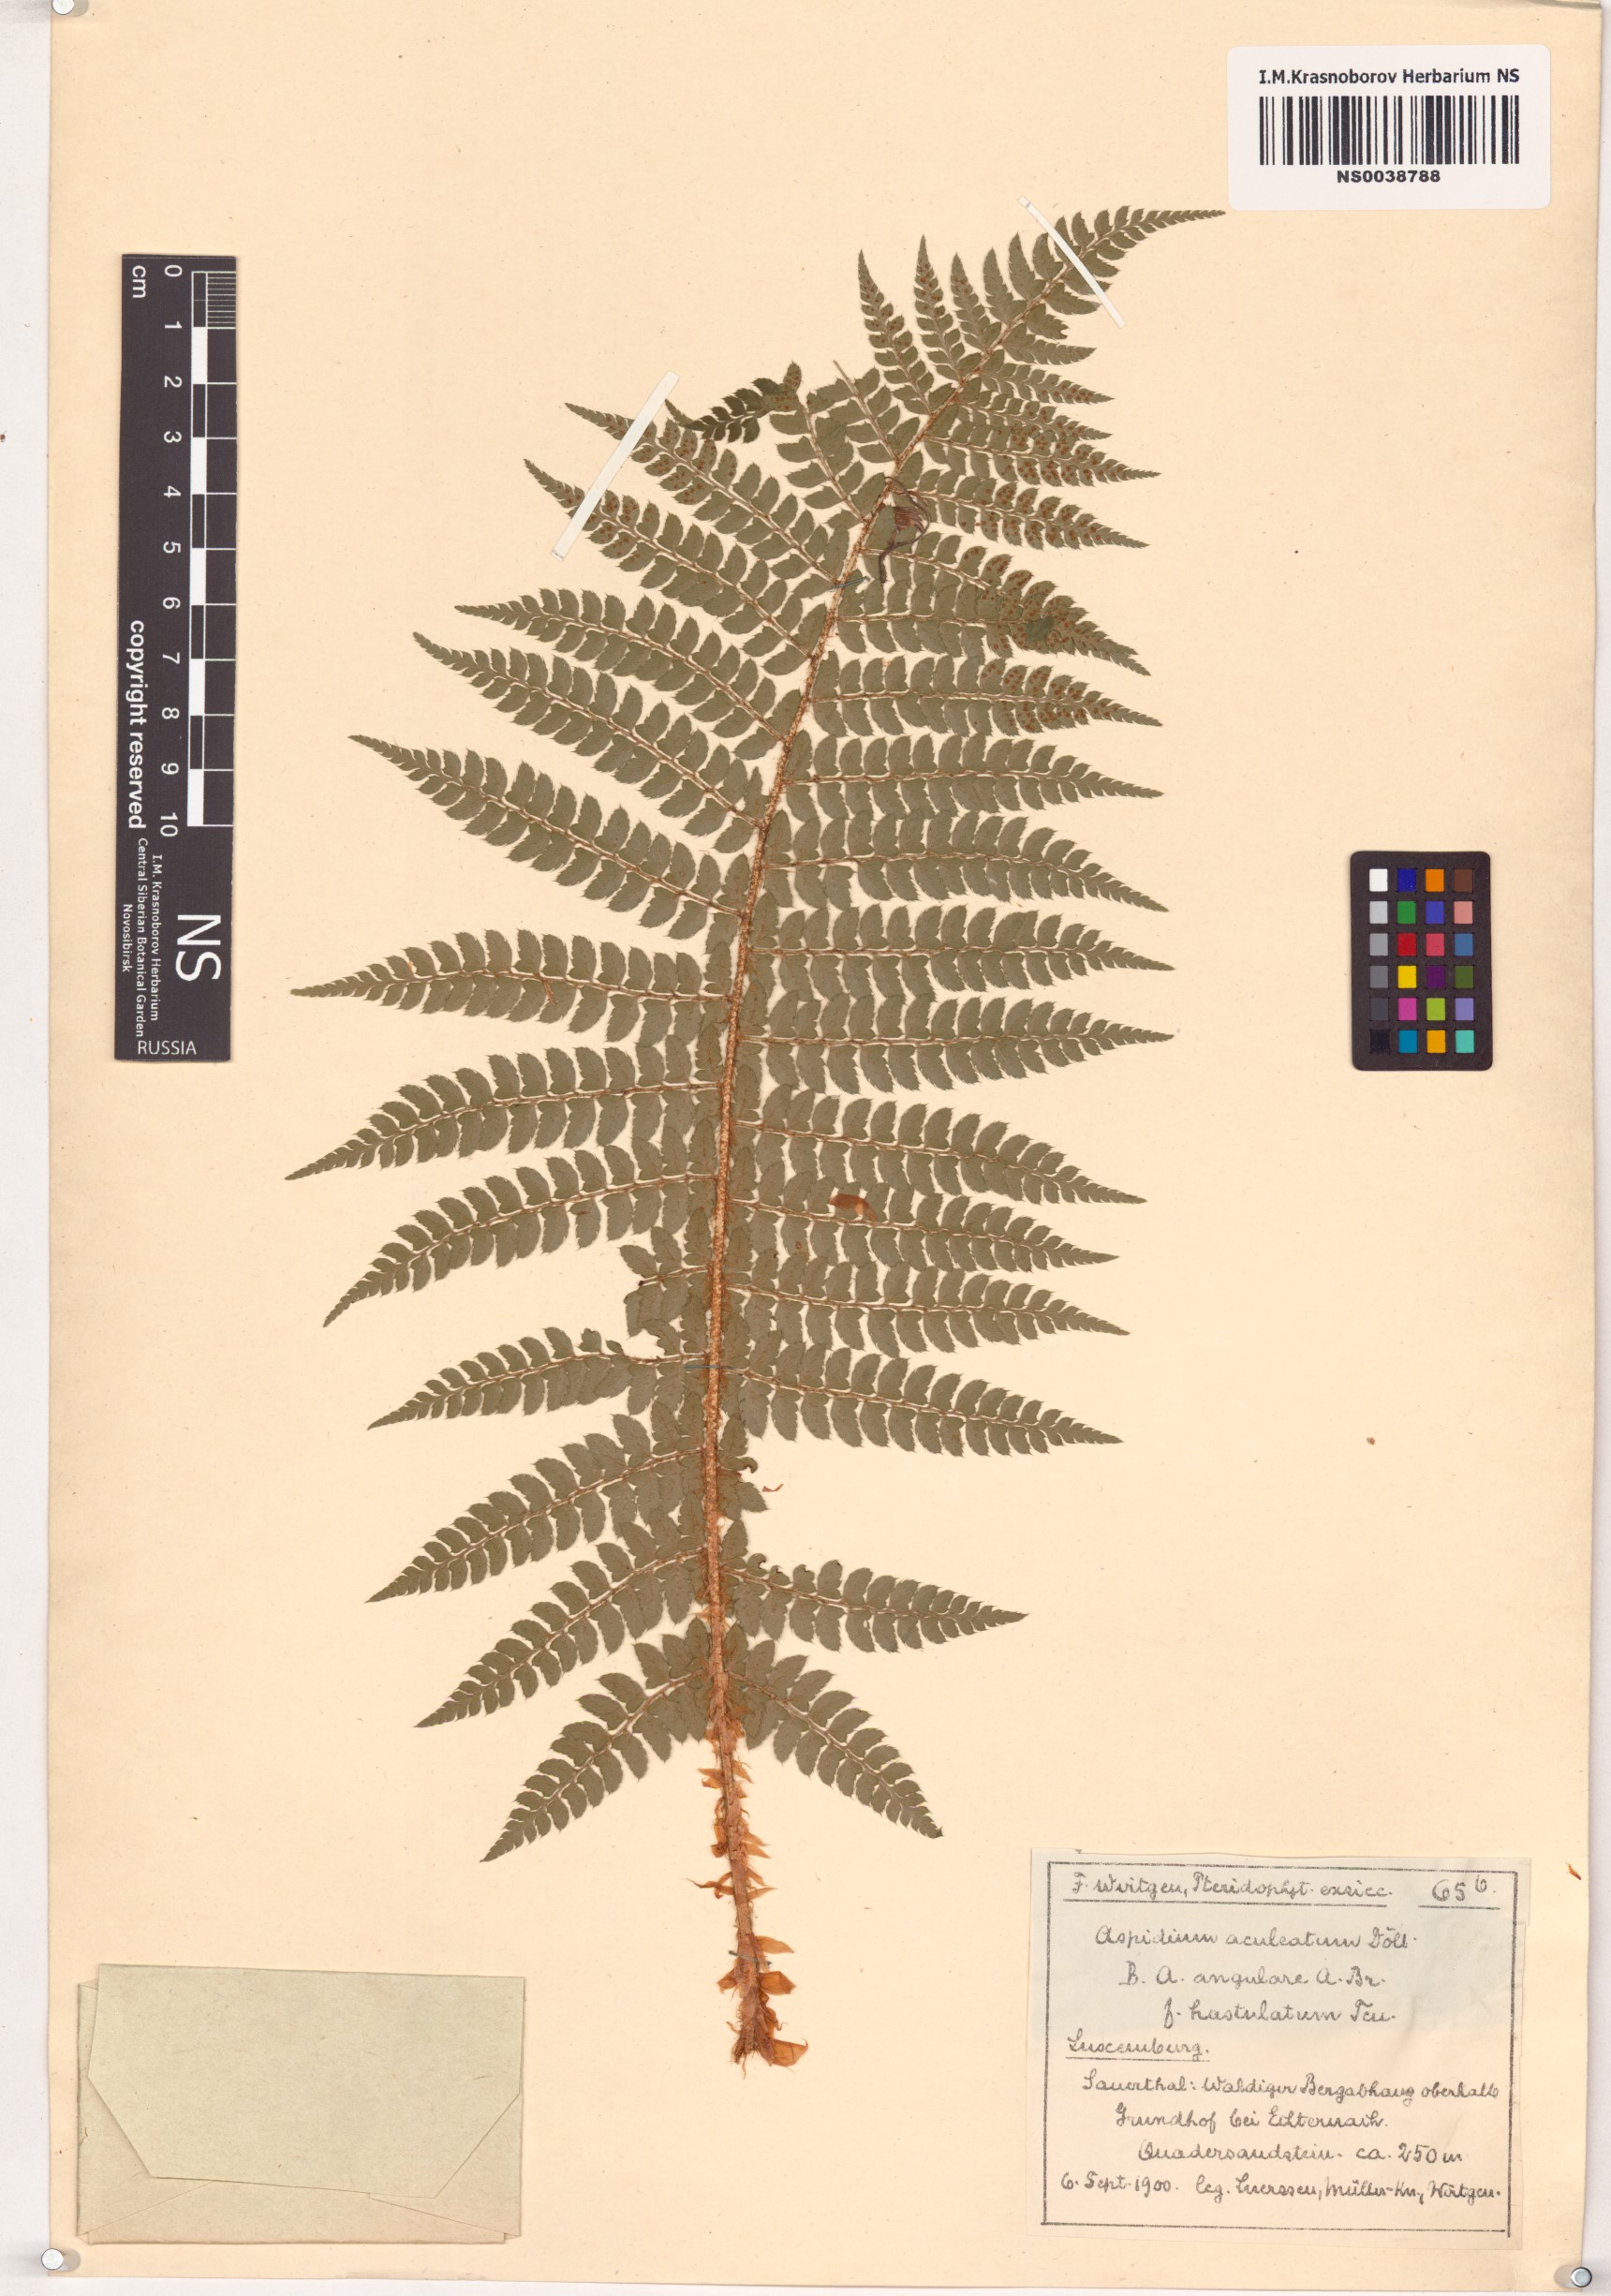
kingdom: Plantae
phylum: Tracheophyta
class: Polypodiopsida
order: Polypodiales
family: Dryopteridaceae
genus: Polystichum
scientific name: Polystichum aculeatum
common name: Hard shield-fern
